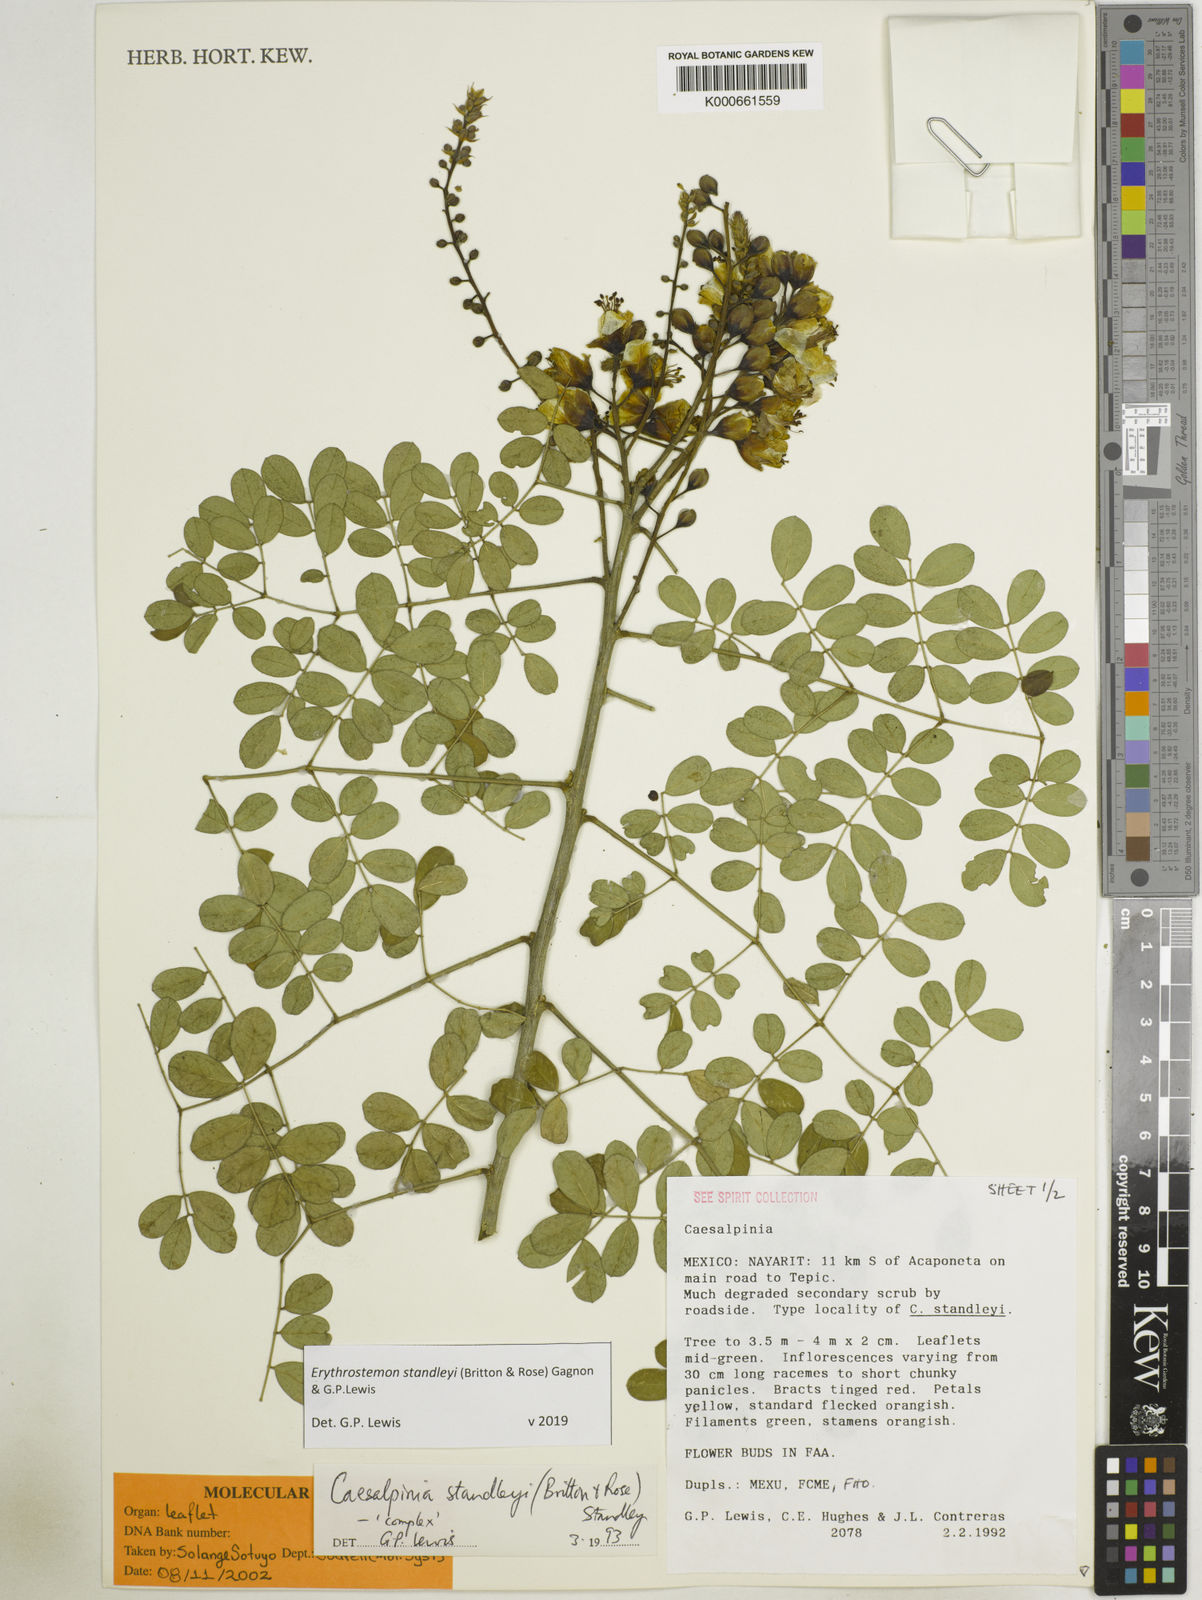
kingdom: Plantae
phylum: Tracheophyta
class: Magnoliopsida
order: Fabales
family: Fabaceae
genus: Erythrostemon
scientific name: Erythrostemon standleyi
